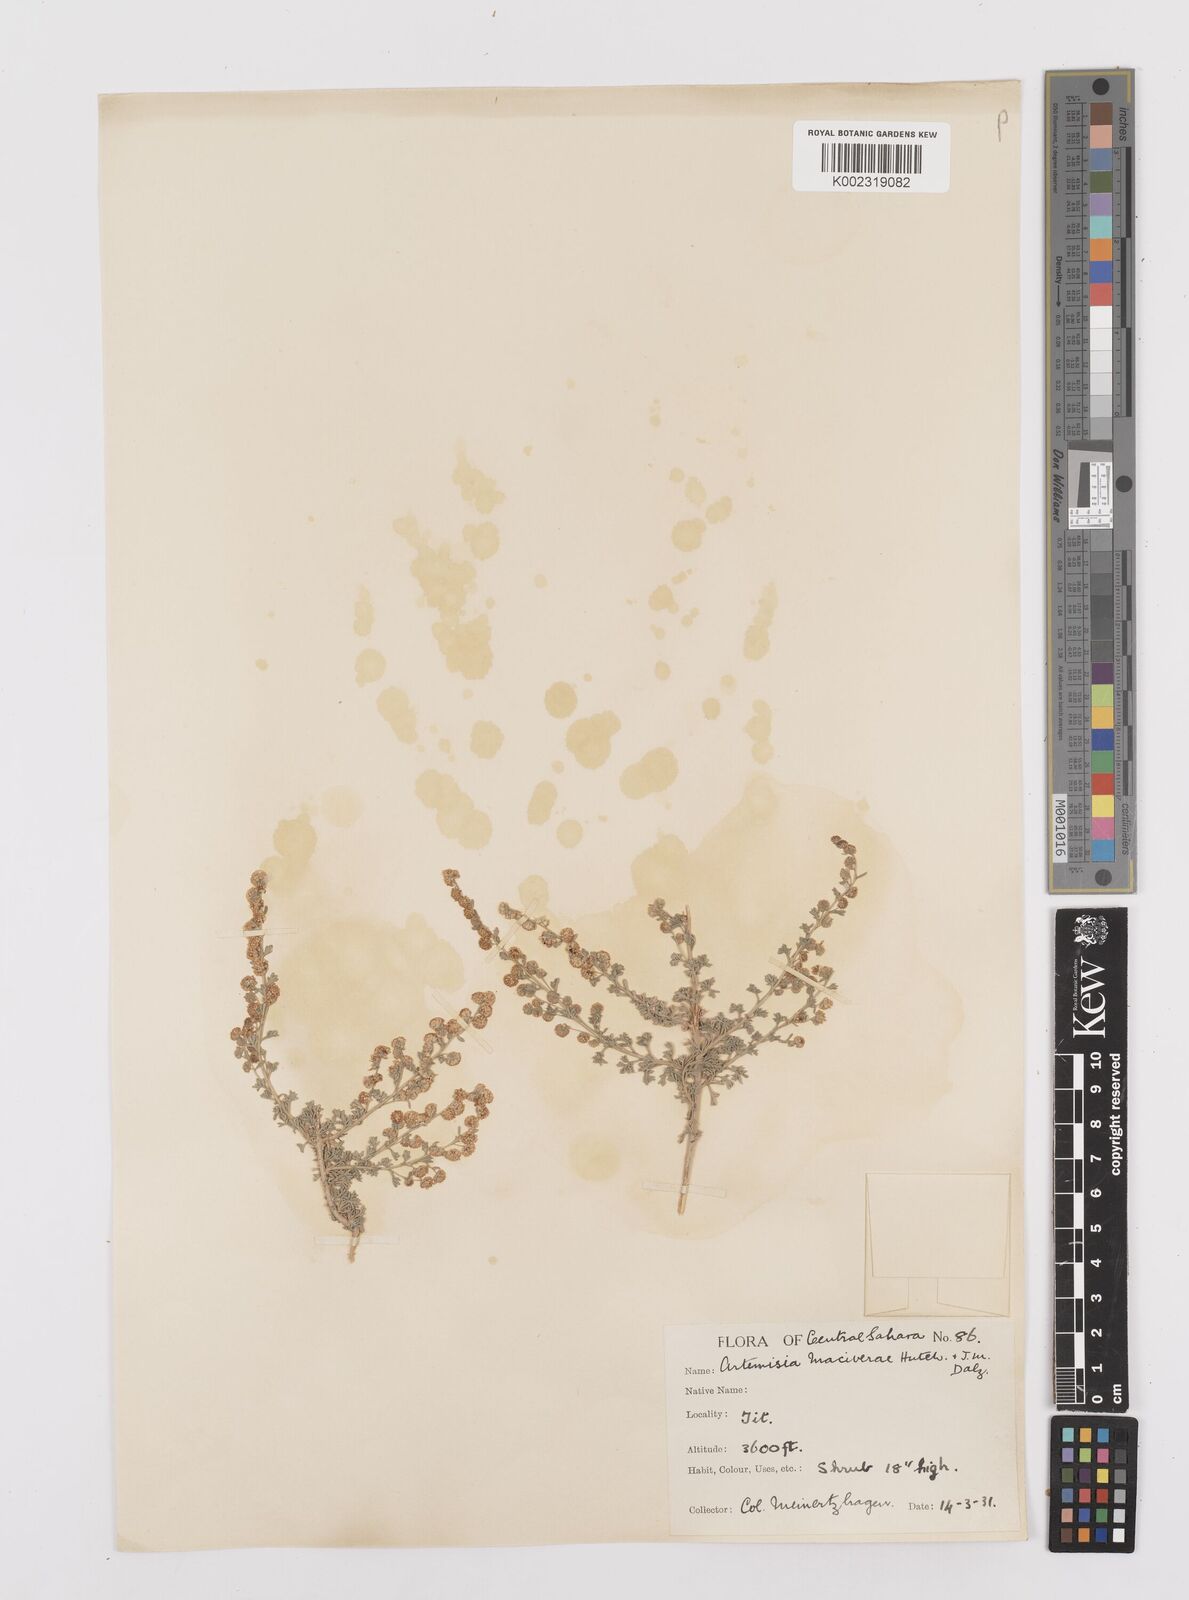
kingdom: Plantae
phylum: Tracheophyta
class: Magnoliopsida
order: Asterales
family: Asteraceae
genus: Artemisia
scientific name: Artemisia herba-alba
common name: White wormwood
